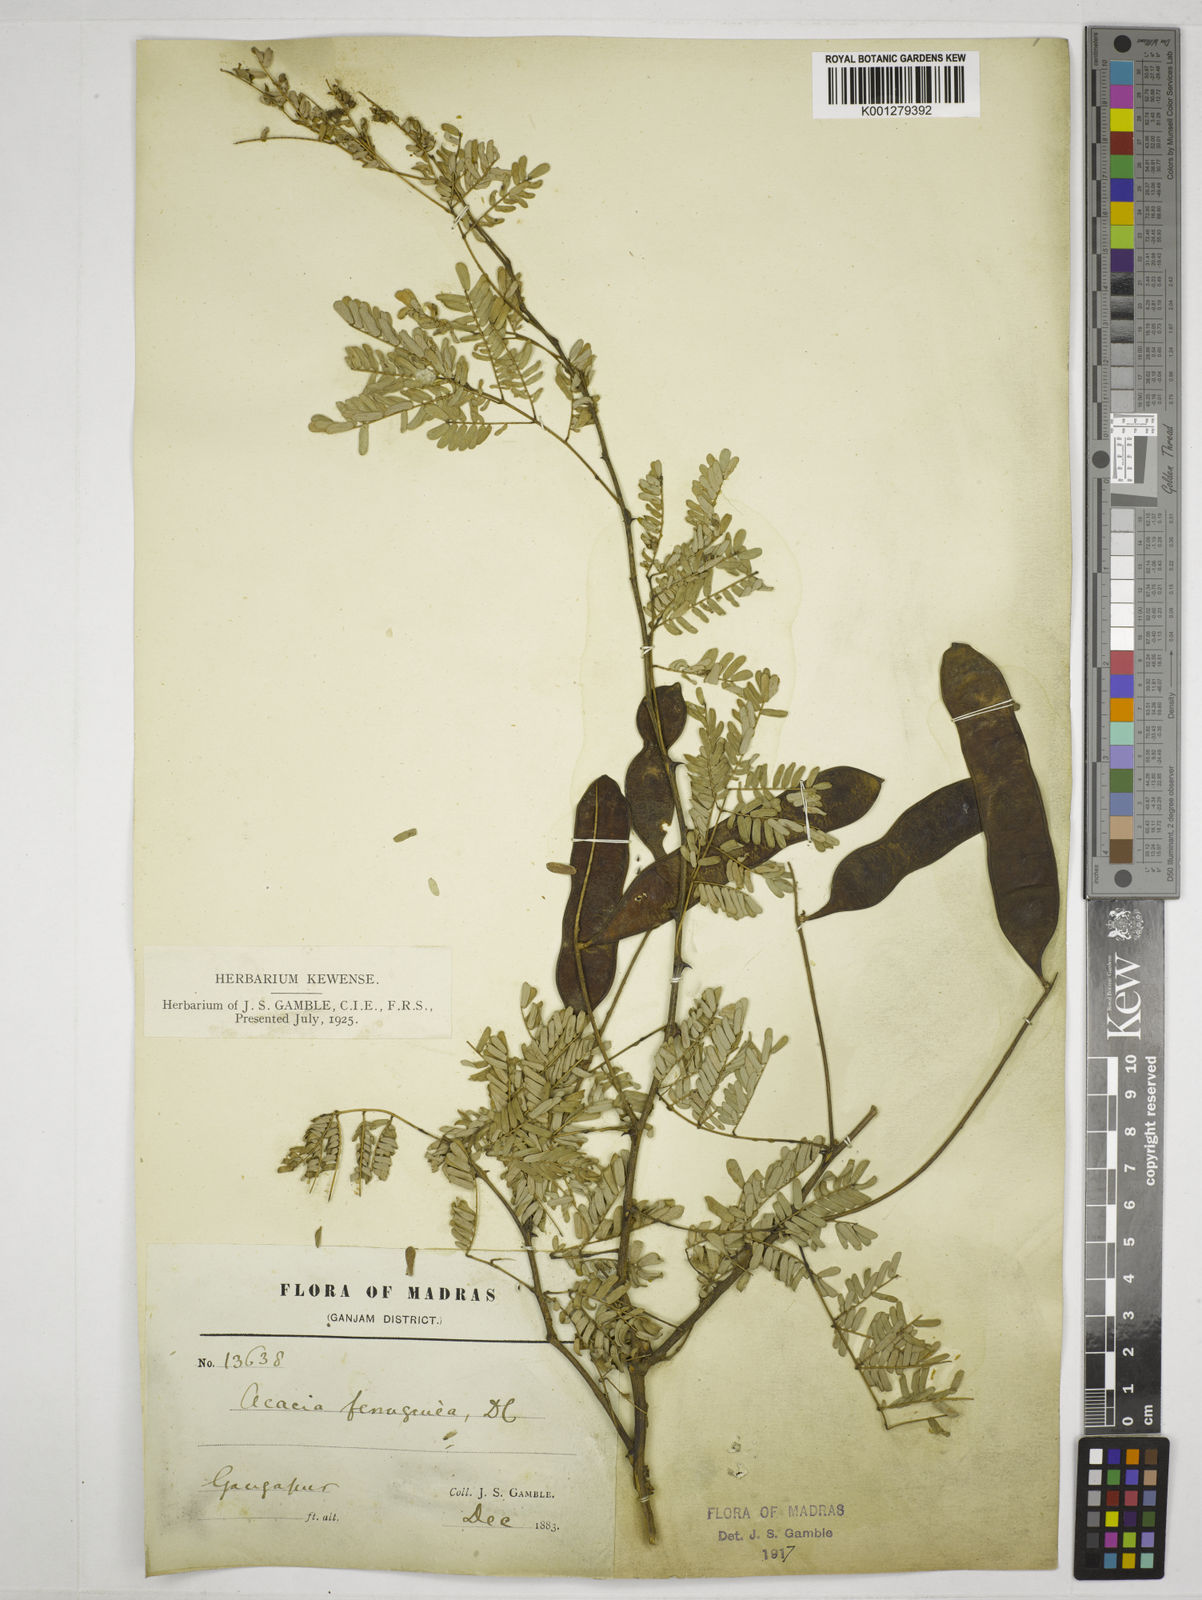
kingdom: Plantae
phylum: Tracheophyta
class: Magnoliopsida
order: Fabales
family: Fabaceae
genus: Senegalia
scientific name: Senegalia ferruginea
